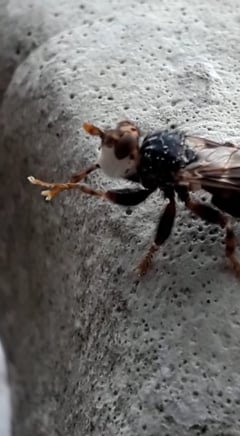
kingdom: Animalia
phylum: Arthropoda
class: Insecta
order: Diptera
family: Conopidae
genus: Myopa
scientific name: Myopa testacea
